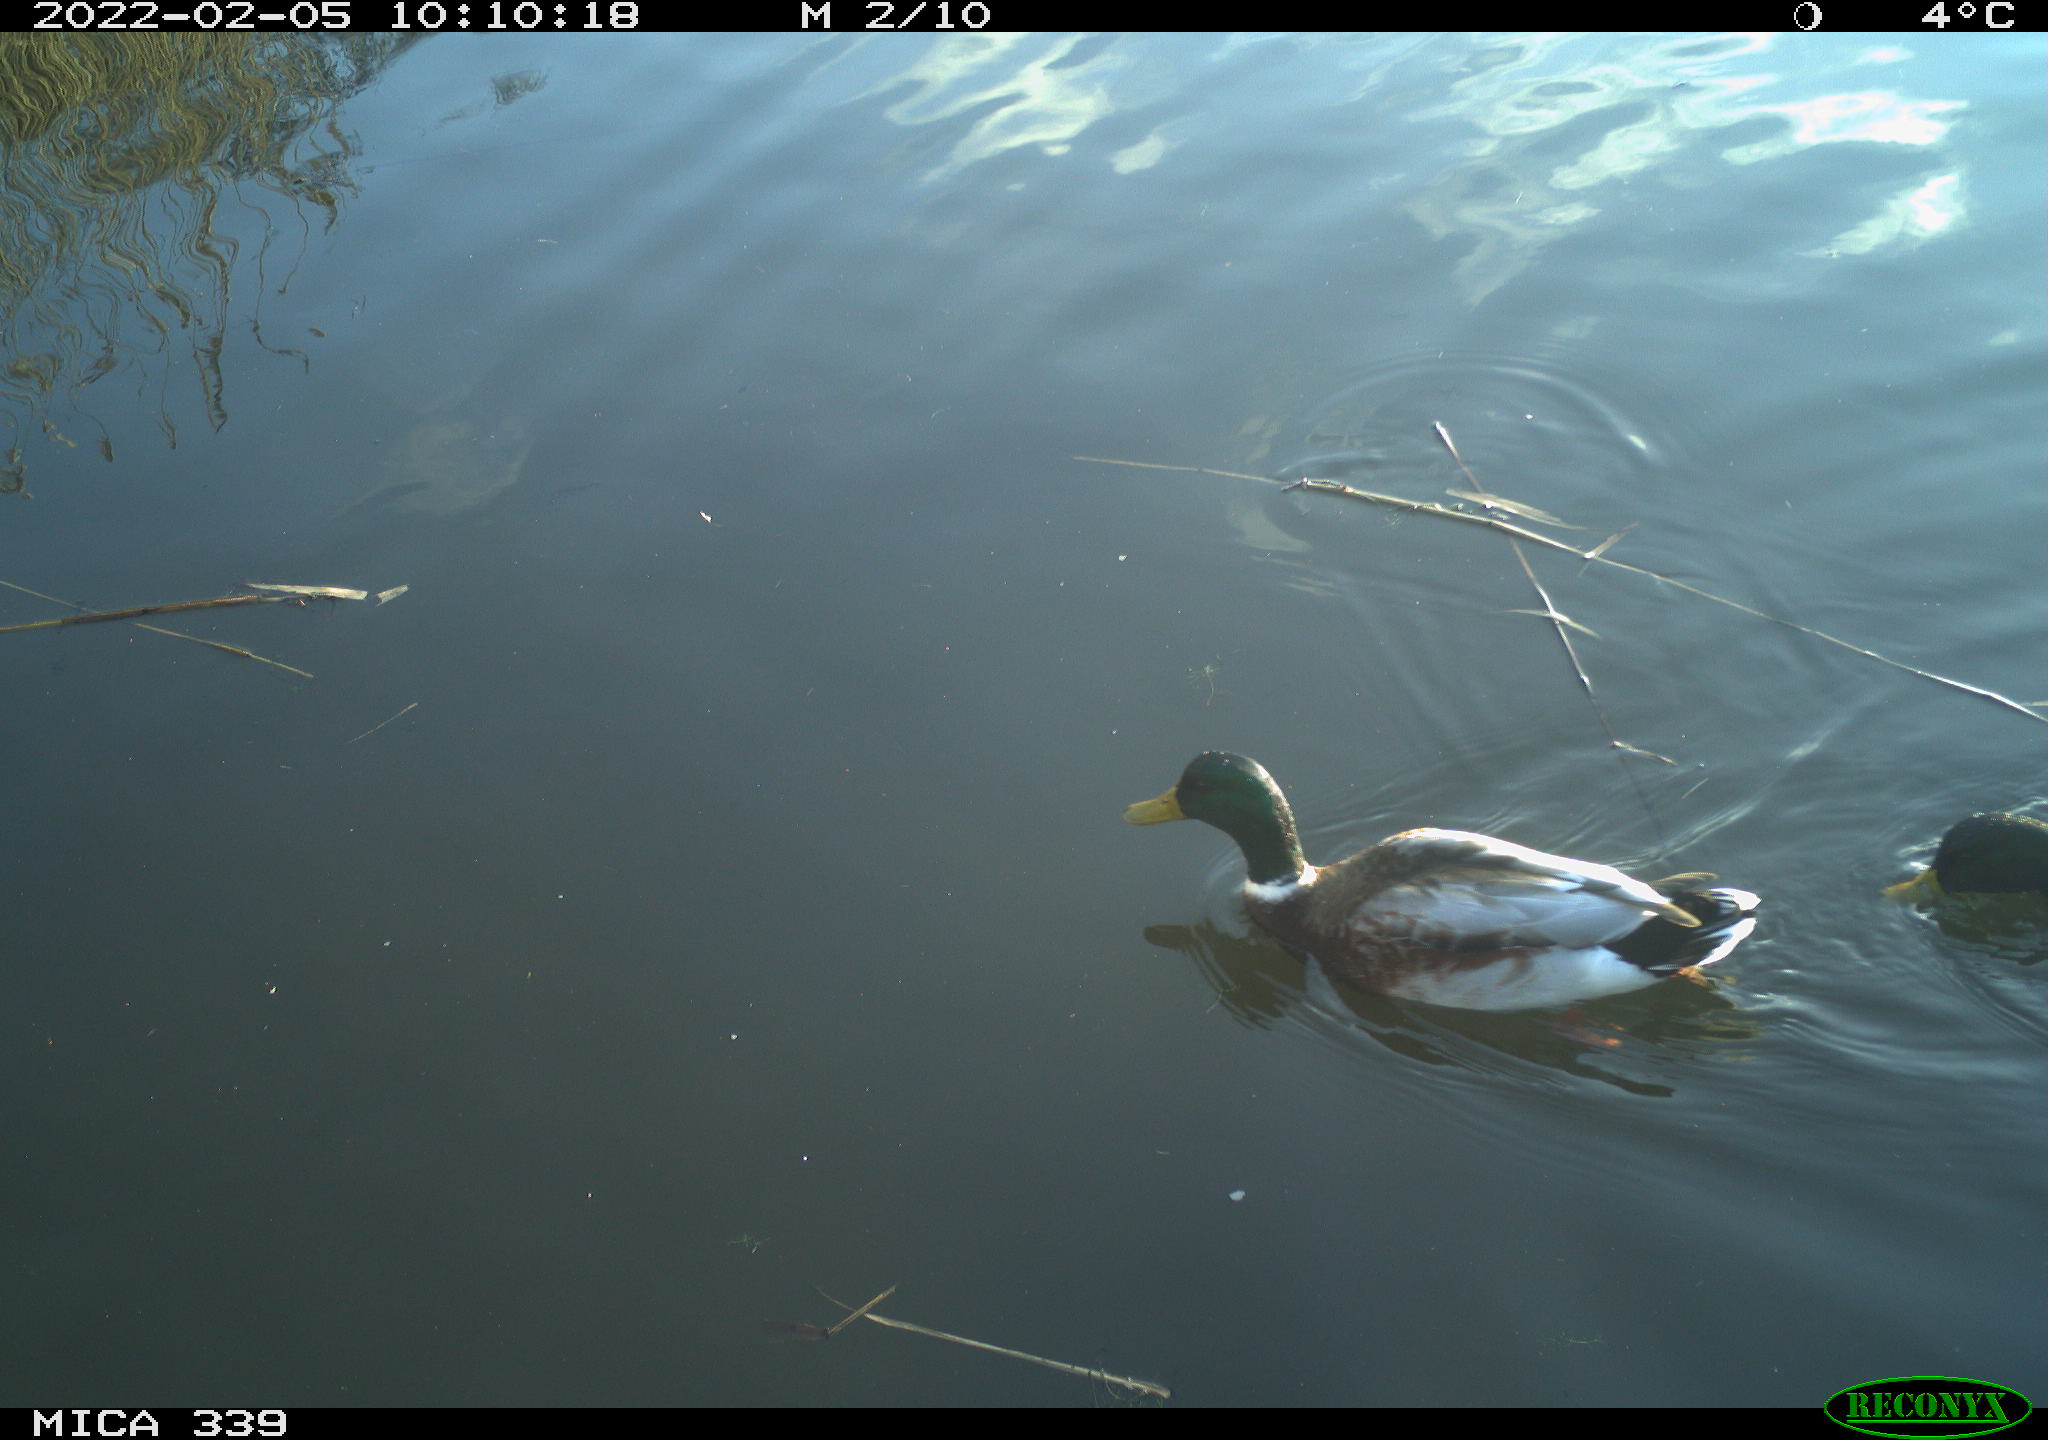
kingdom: Animalia
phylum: Chordata
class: Aves
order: Anseriformes
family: Anatidae
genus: Anas
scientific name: Anas platyrhynchos
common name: Mallard
